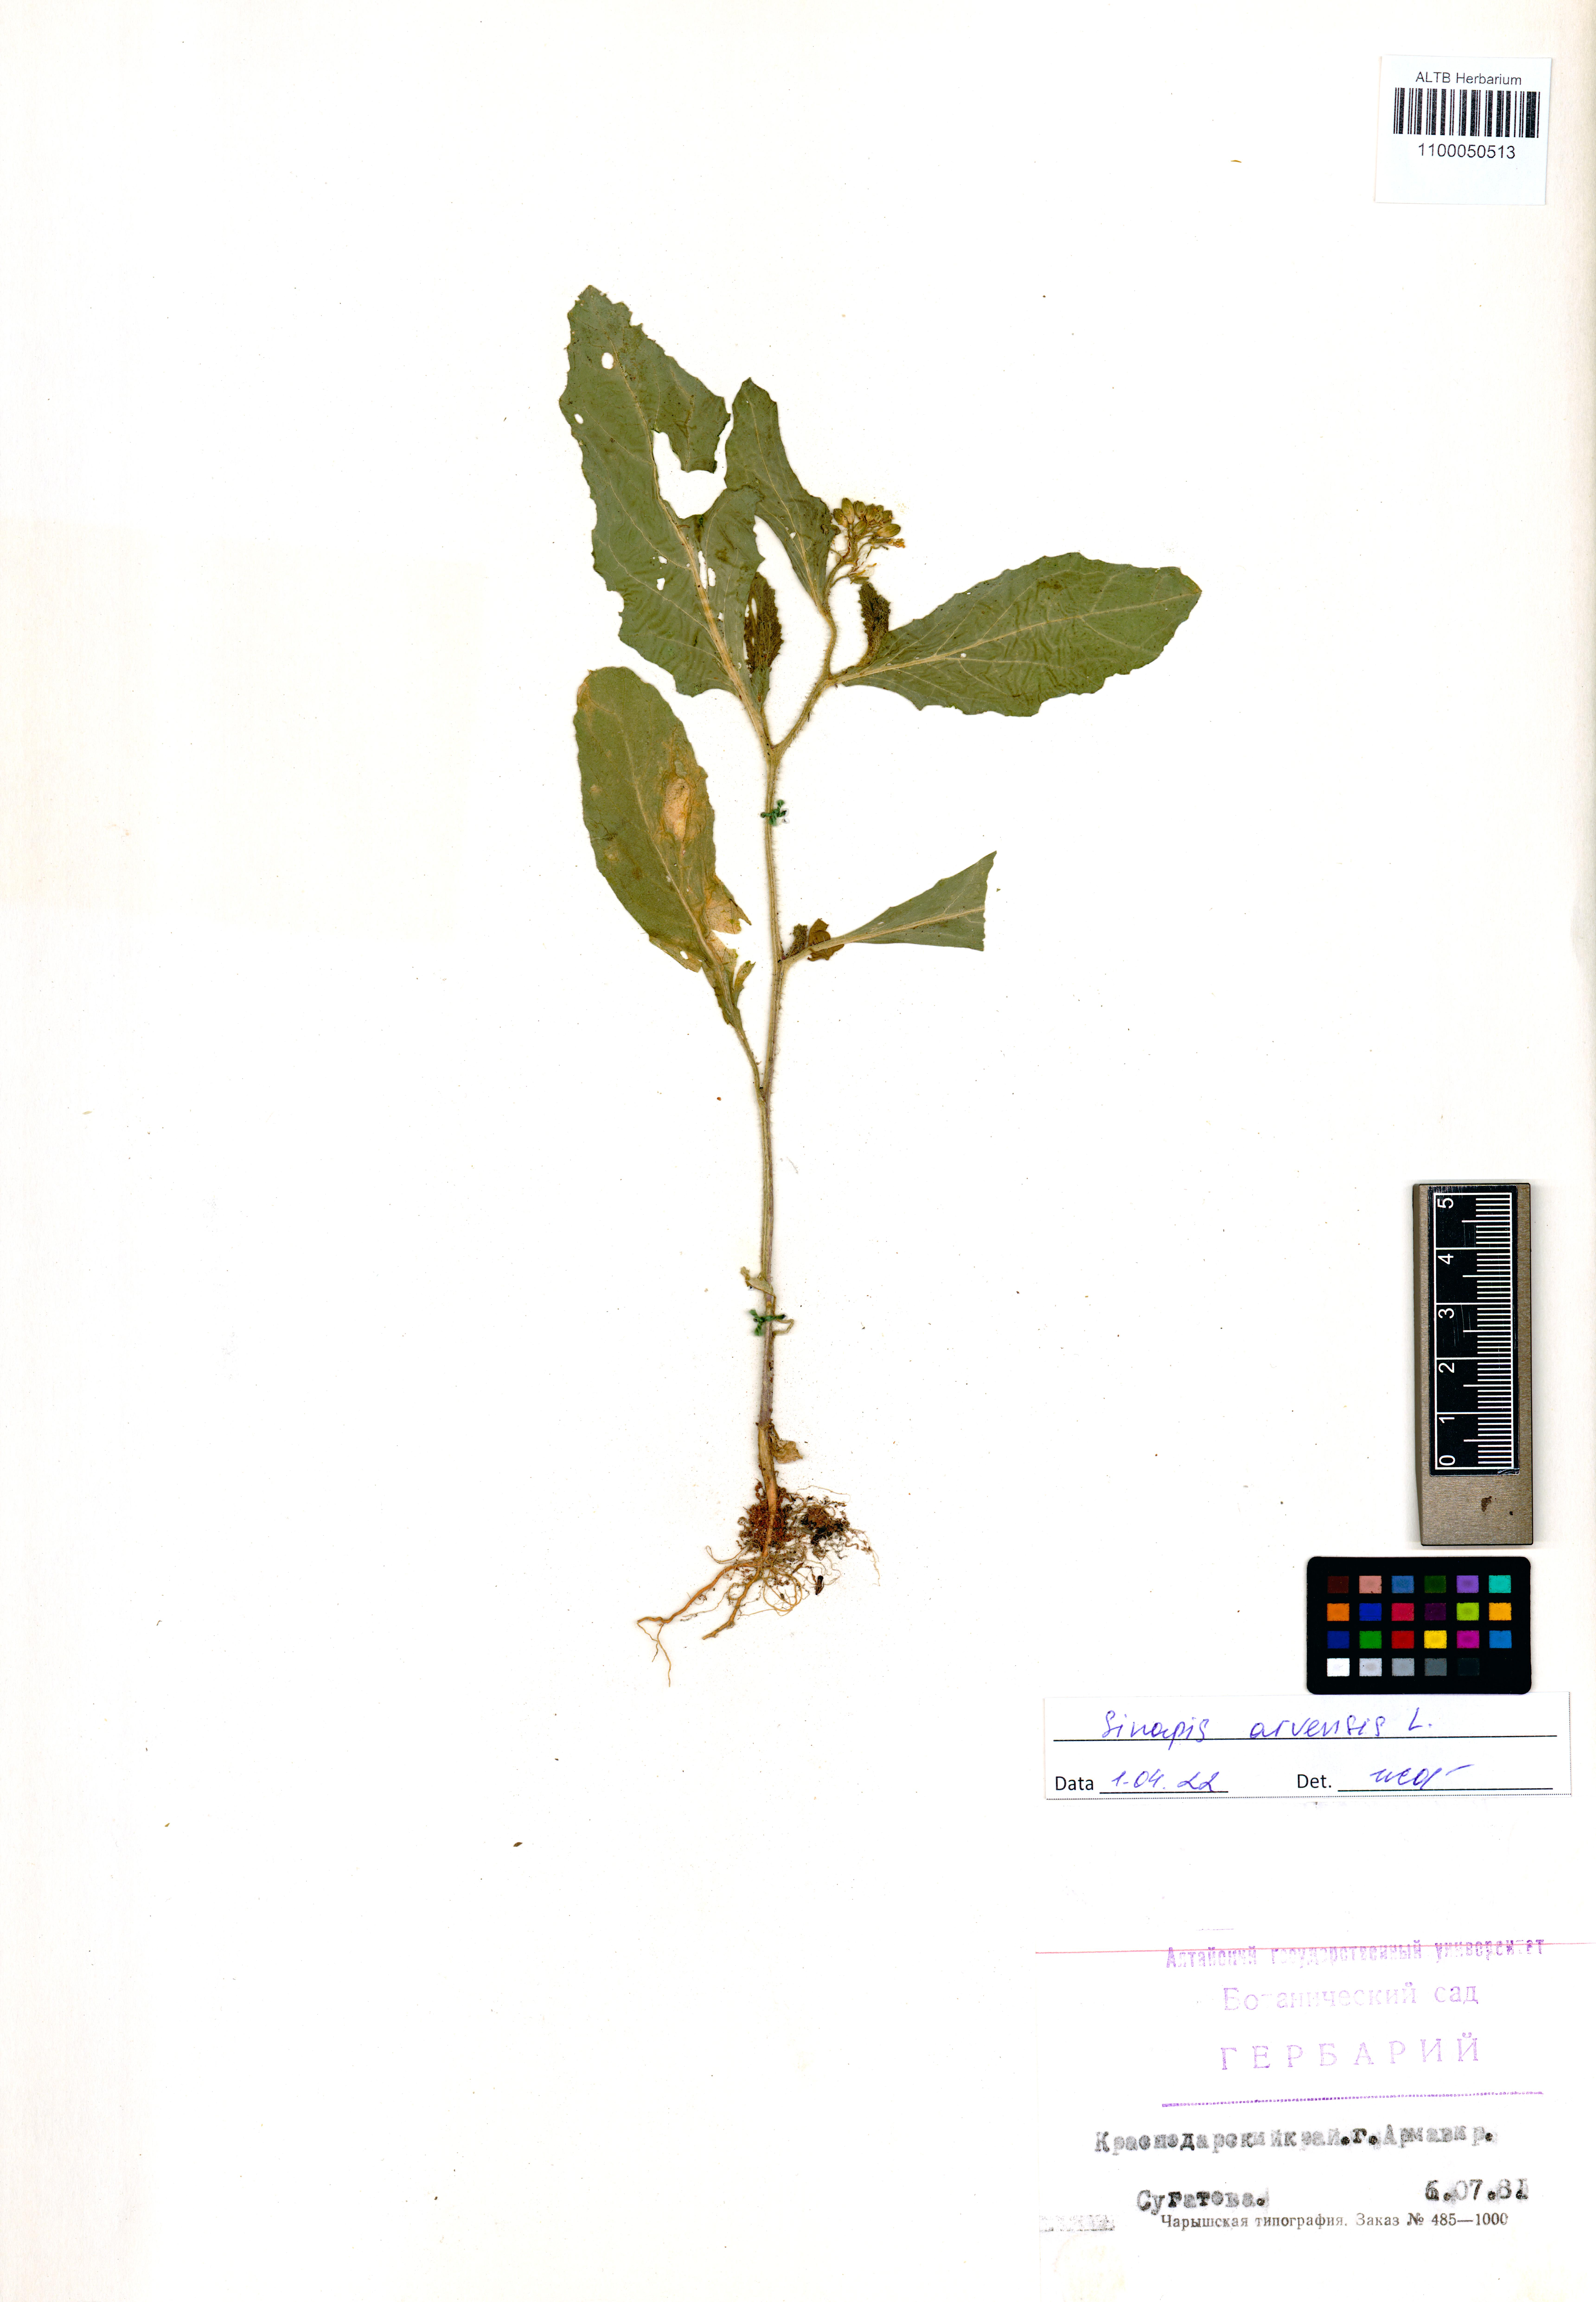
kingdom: Plantae
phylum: Tracheophyta
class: Magnoliopsida
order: Brassicales
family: Brassicaceae
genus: Sinapis
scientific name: Sinapis arvensis
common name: Charlock
